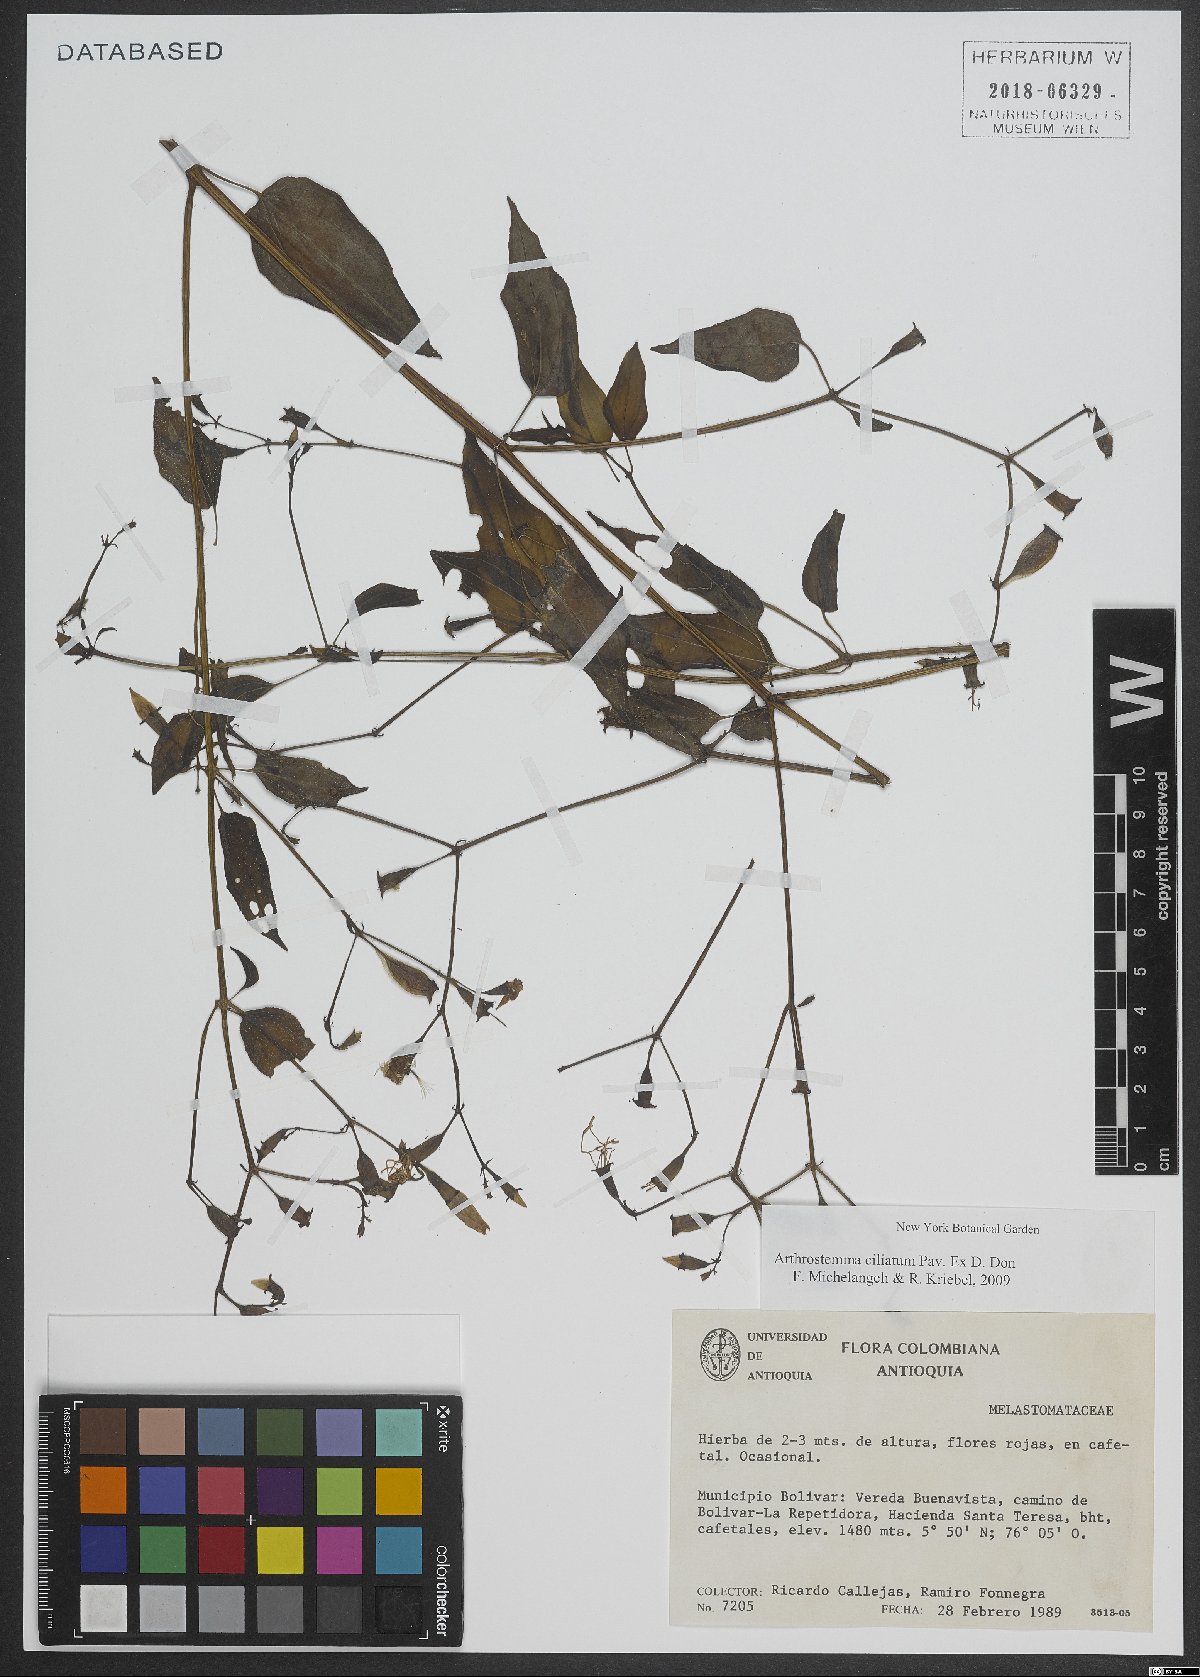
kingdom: Plantae
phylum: Tracheophyta
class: Magnoliopsida
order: Myrtales
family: Melastomataceae
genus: Arthrostemma
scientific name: Arthrostemma ciliatum
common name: Everblooming eavender
